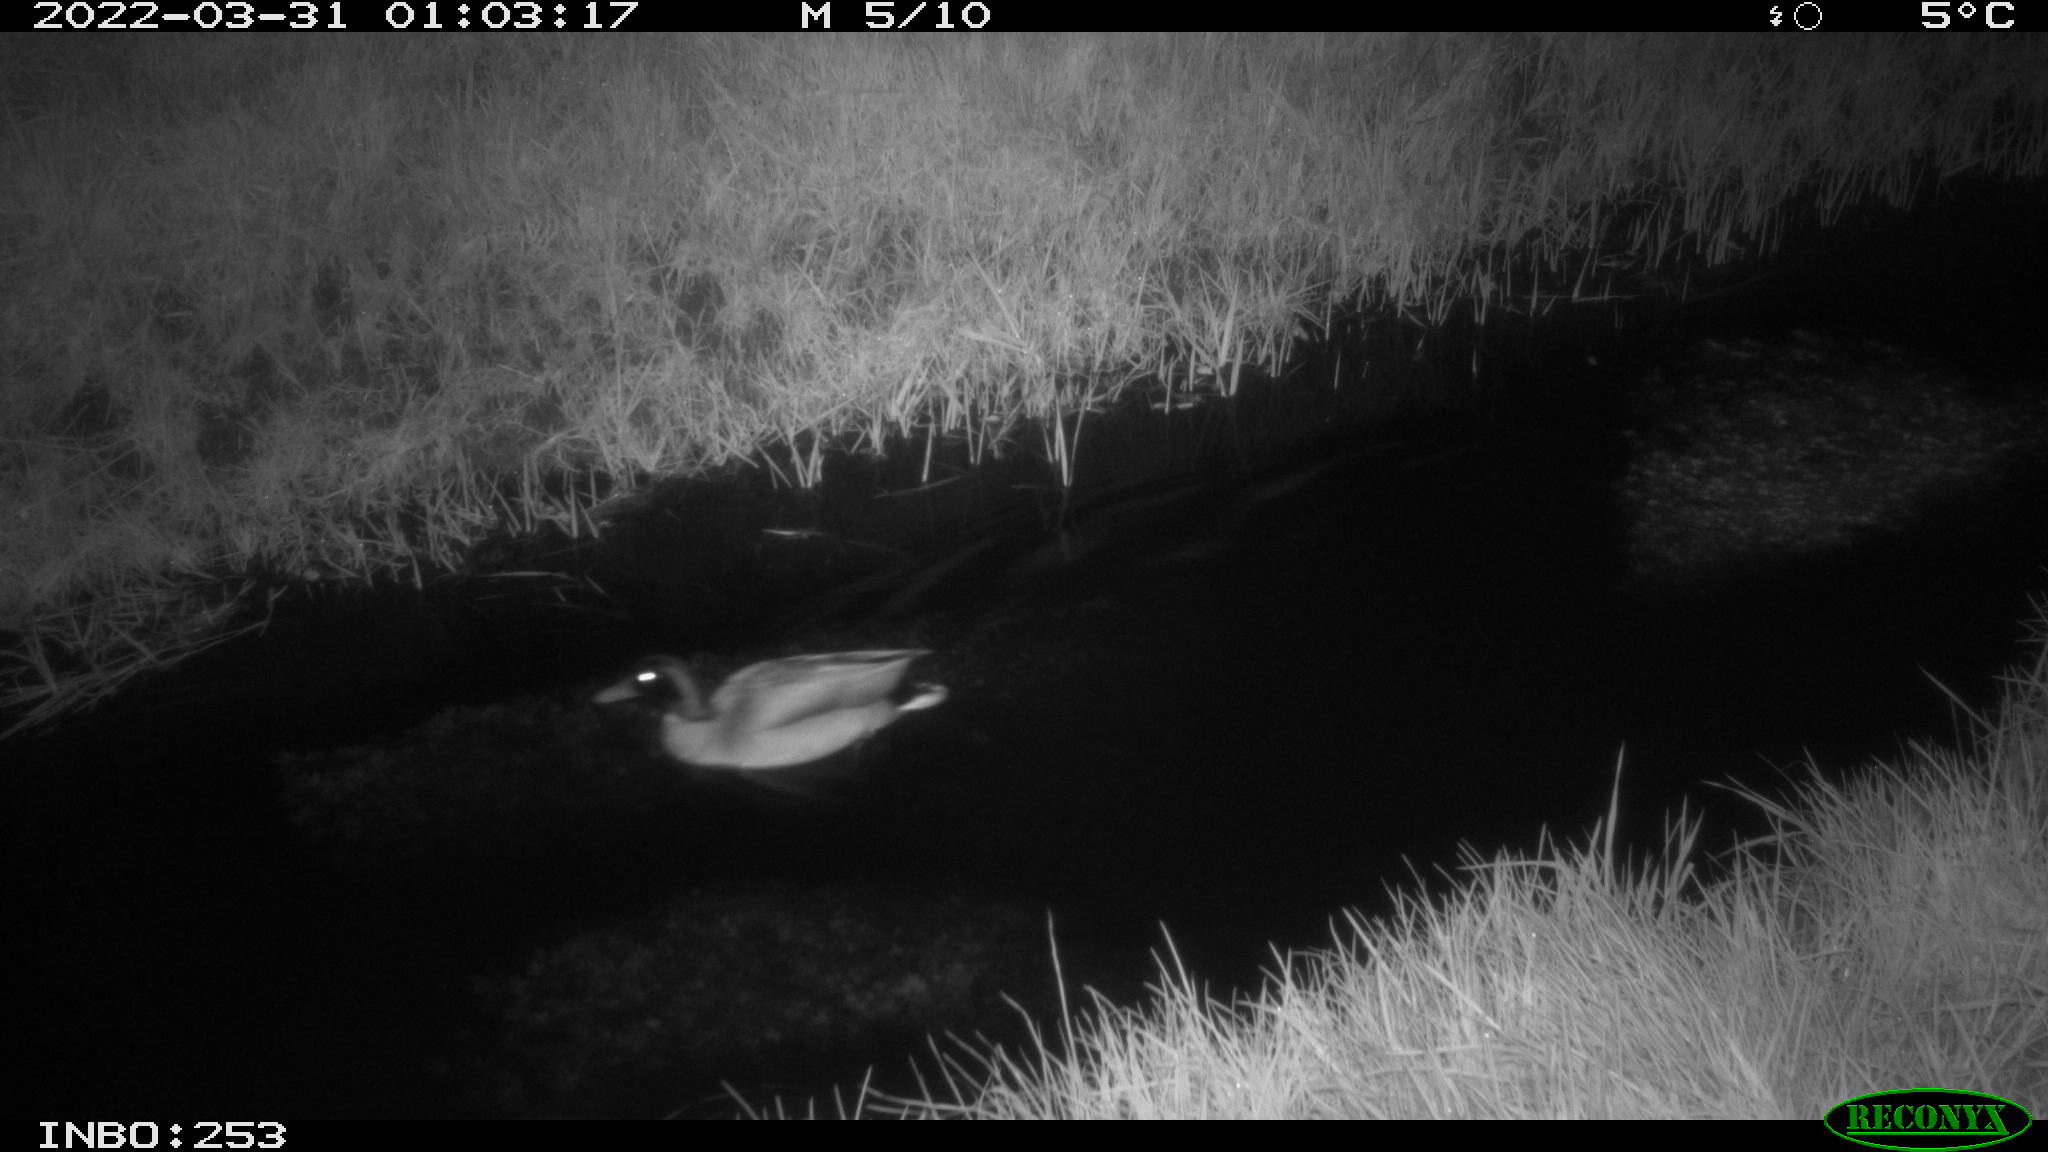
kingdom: Animalia
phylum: Chordata
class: Aves
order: Anseriformes
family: Anatidae
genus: Anas
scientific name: Anas platyrhynchos
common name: Mallard
